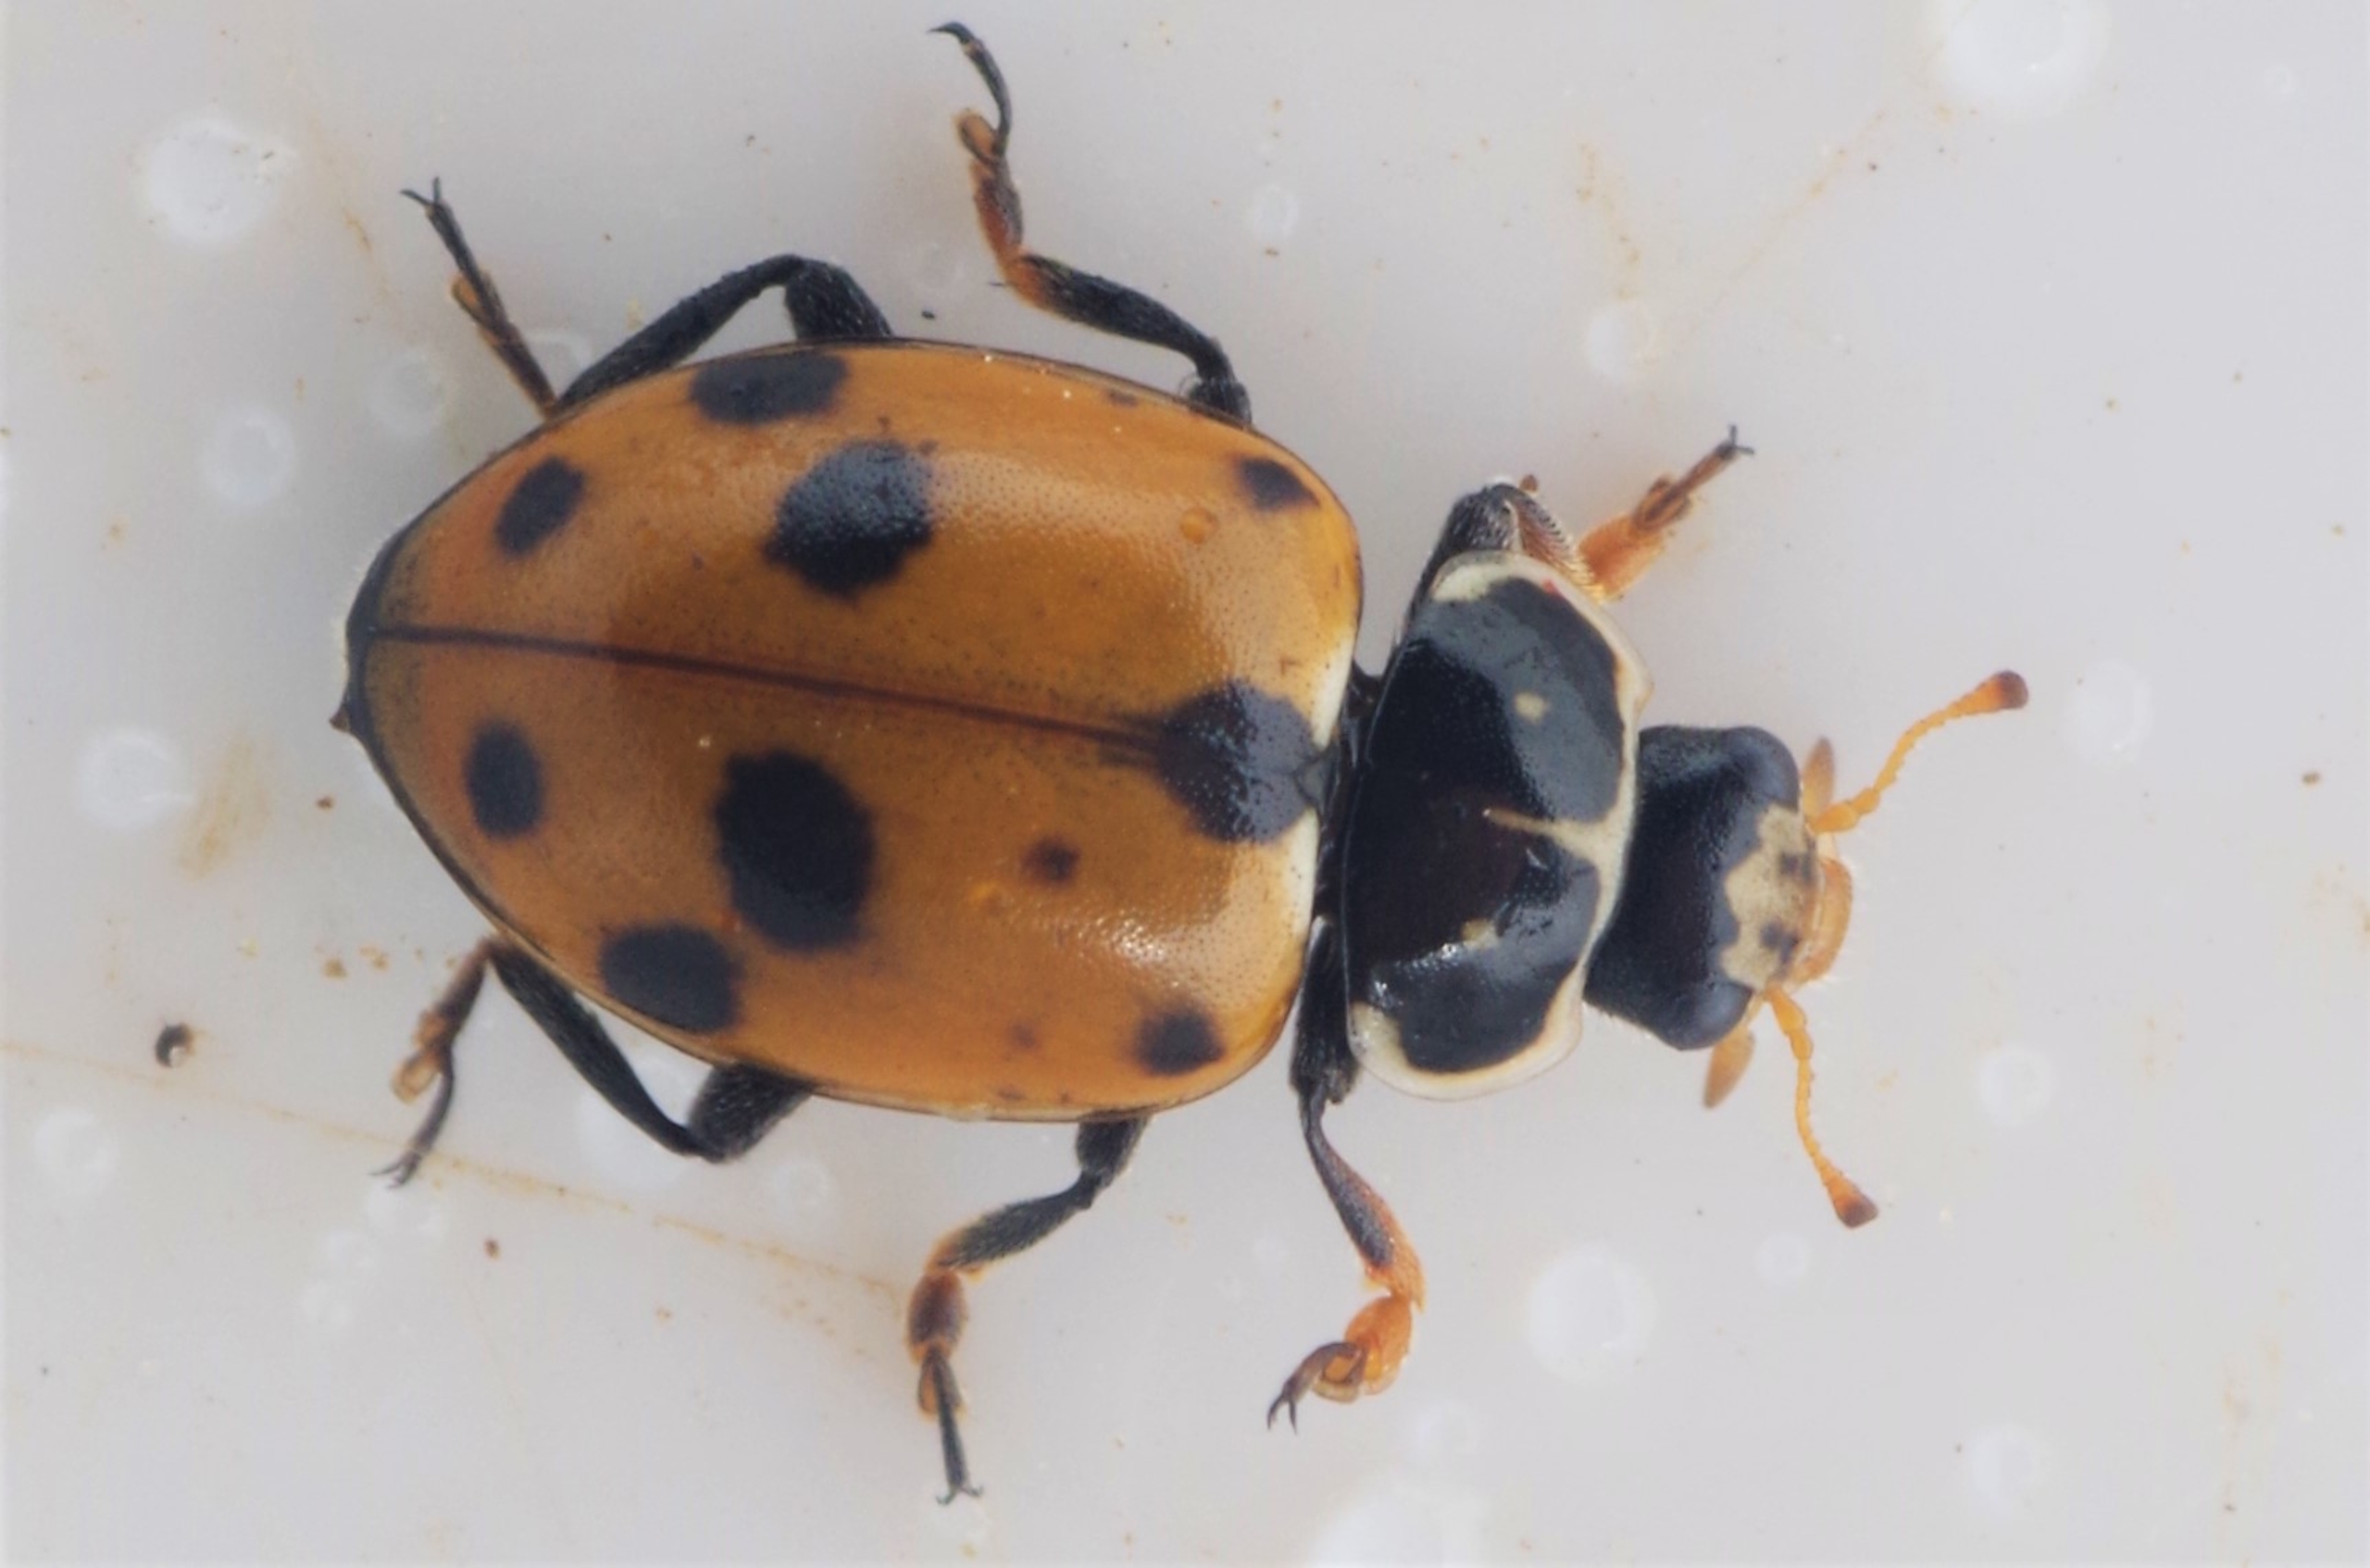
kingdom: Animalia
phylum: Arthropoda
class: Insecta
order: Coleoptera
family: Coccinellidae
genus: Hippodamia
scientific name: Hippodamia variegata
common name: Adonis' mariehøne
